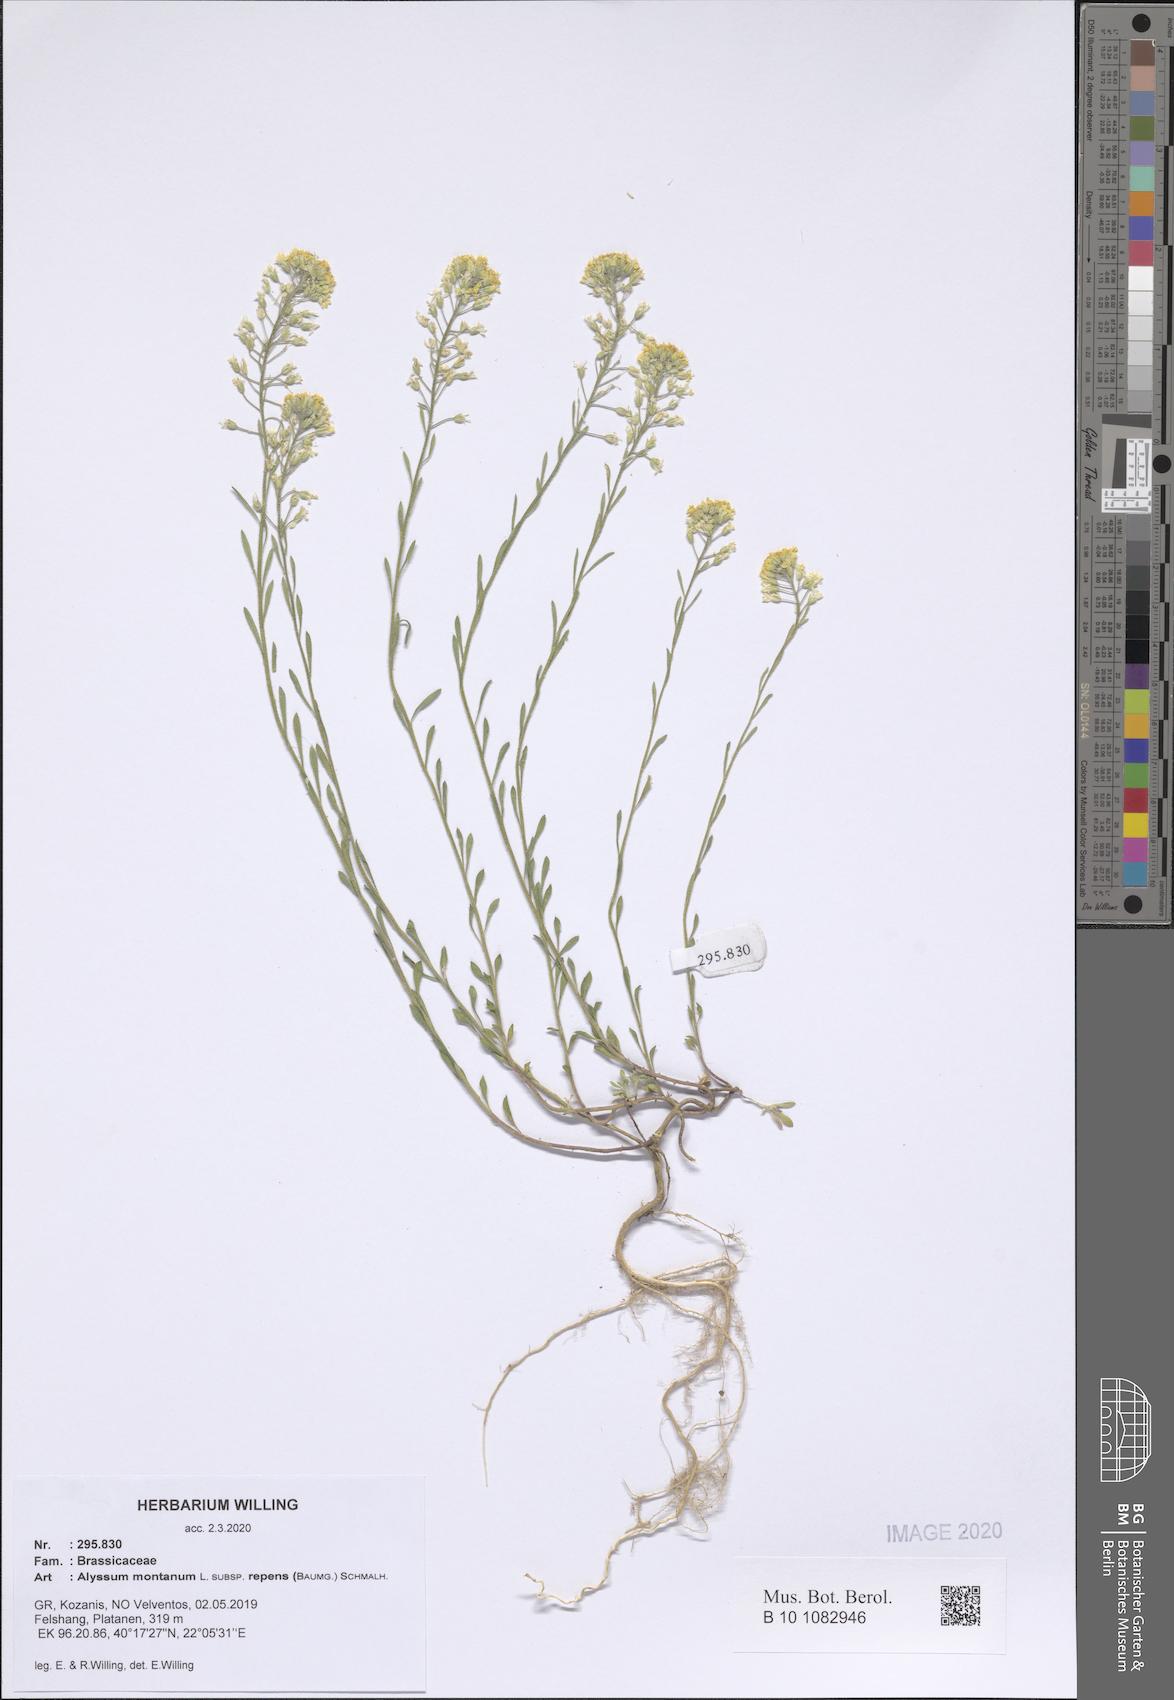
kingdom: Plantae
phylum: Tracheophyta
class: Magnoliopsida
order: Brassicales
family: Brassicaceae
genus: Alyssum
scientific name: Alyssum trichostachyum
